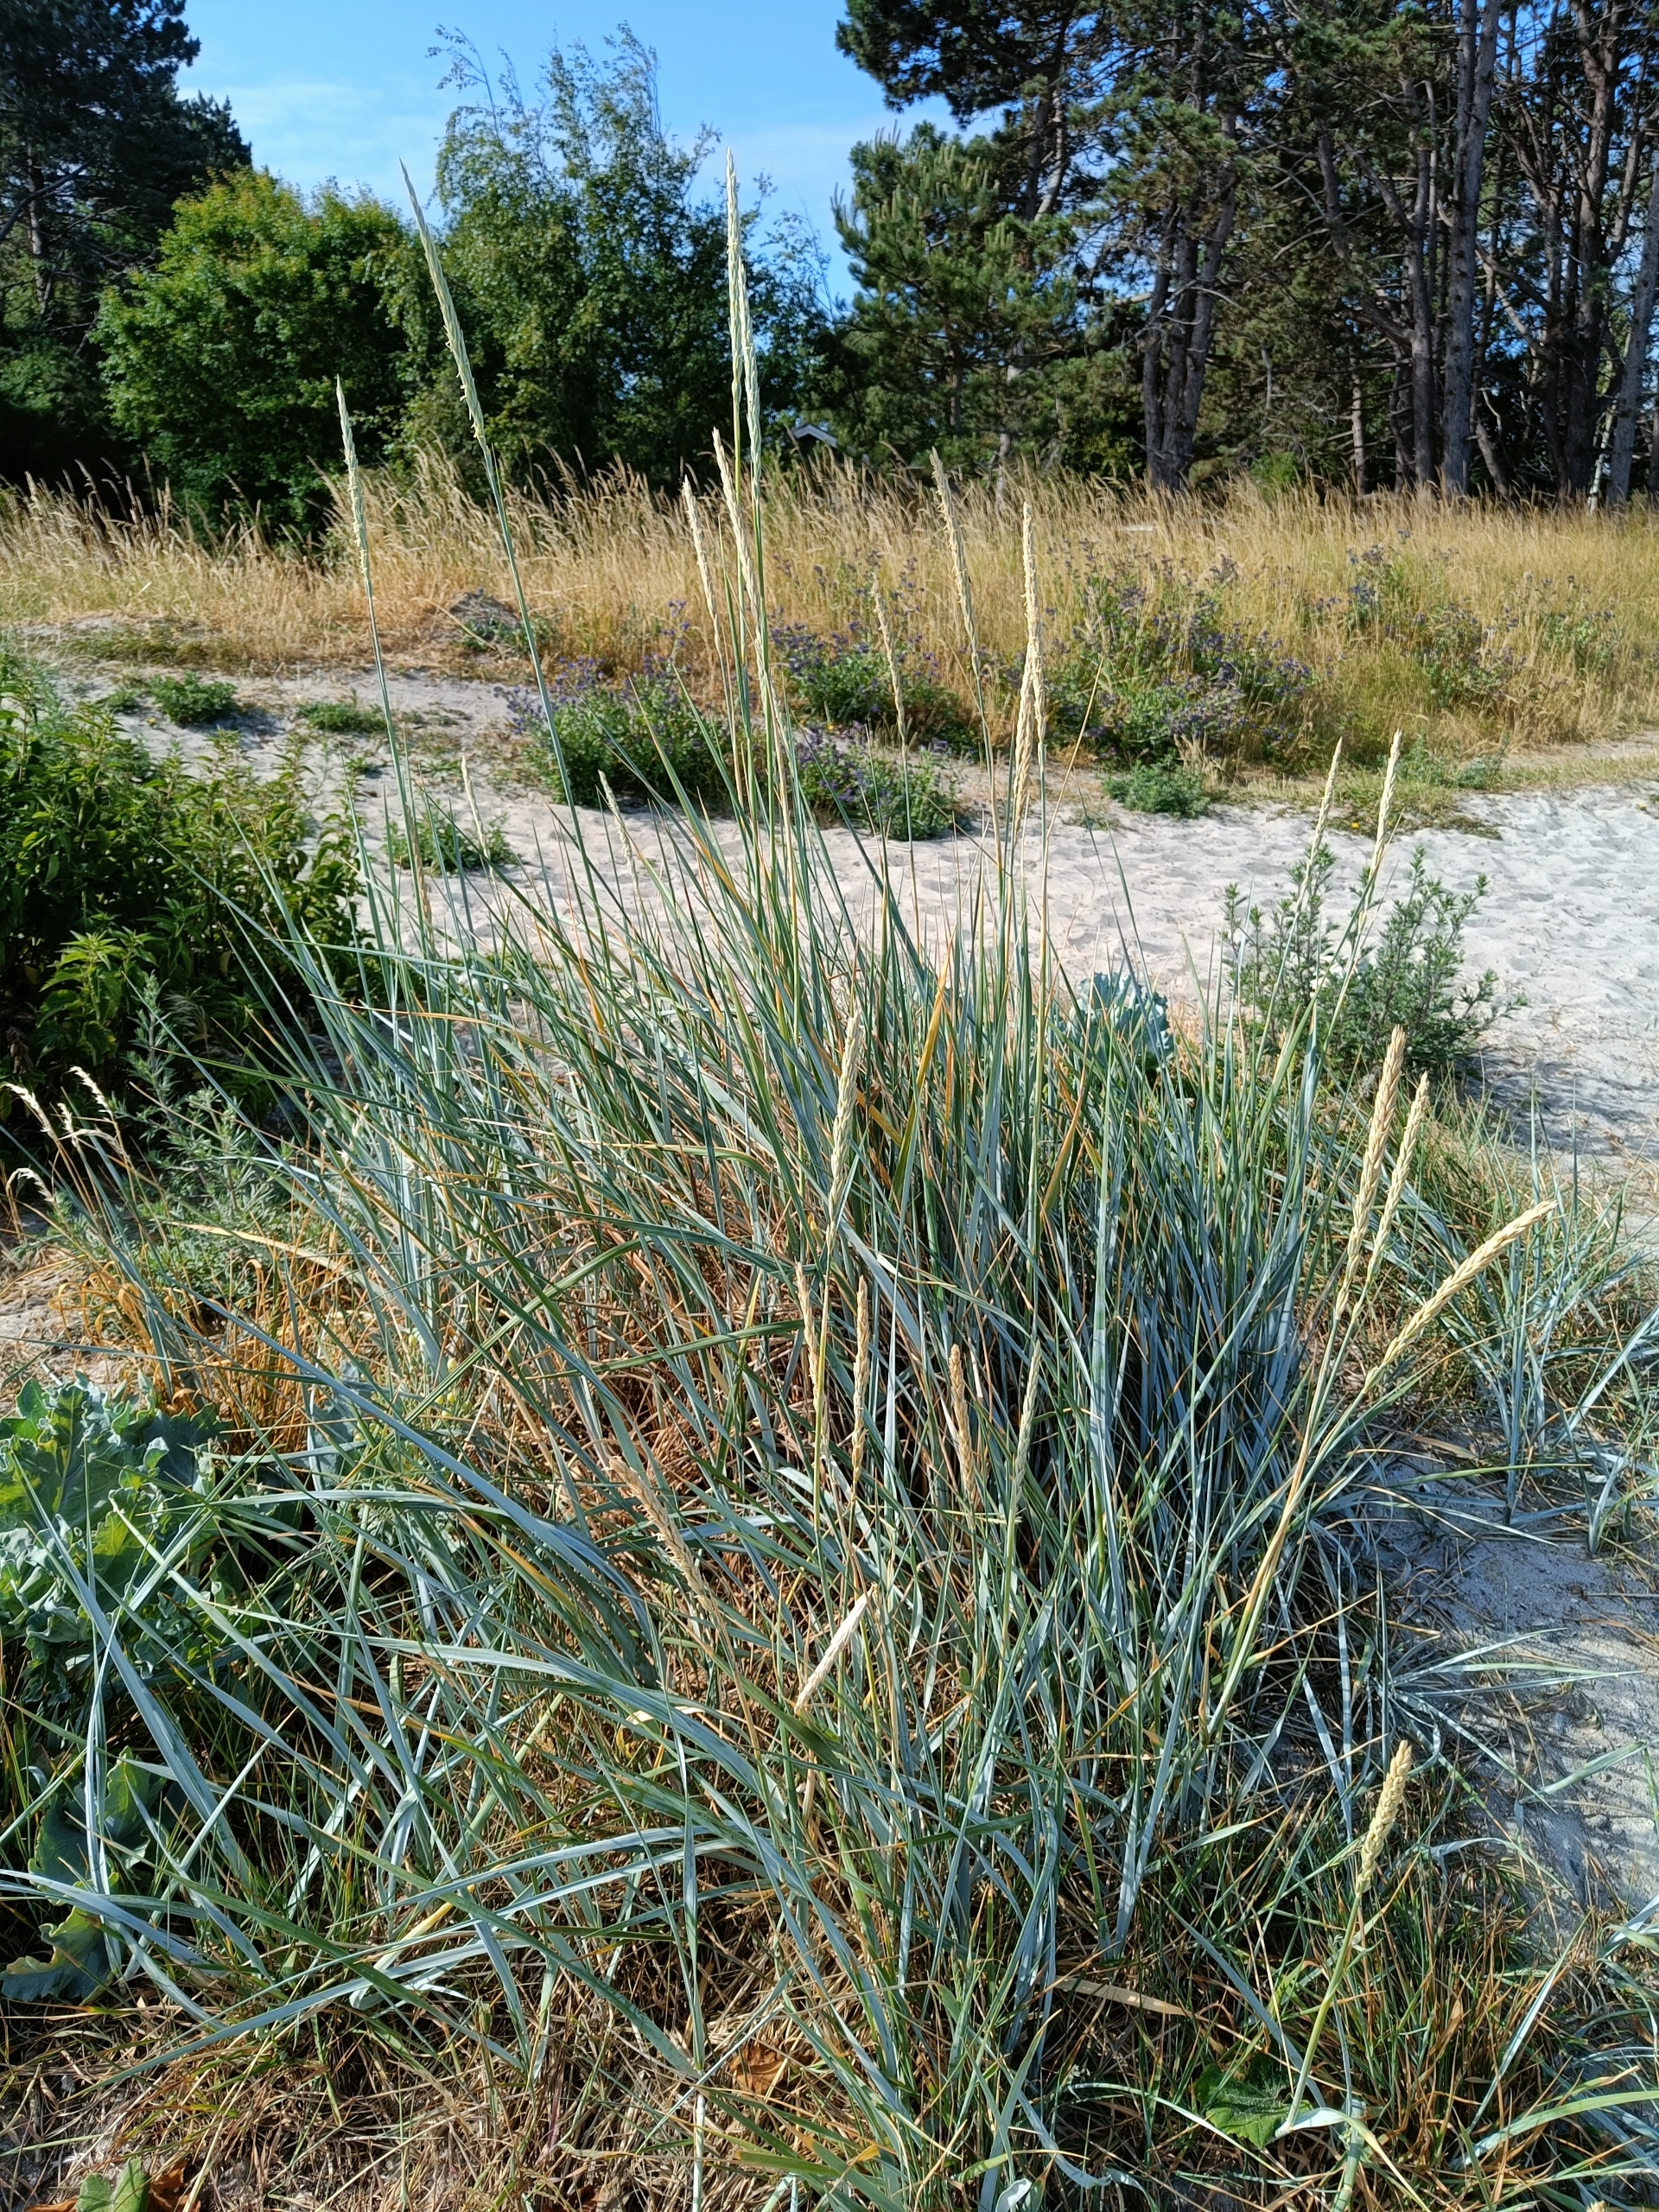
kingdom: Plantae
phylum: Tracheophyta
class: Liliopsida
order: Poales
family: Poaceae
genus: Leymus
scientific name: Leymus arenarius
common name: Marehalm
